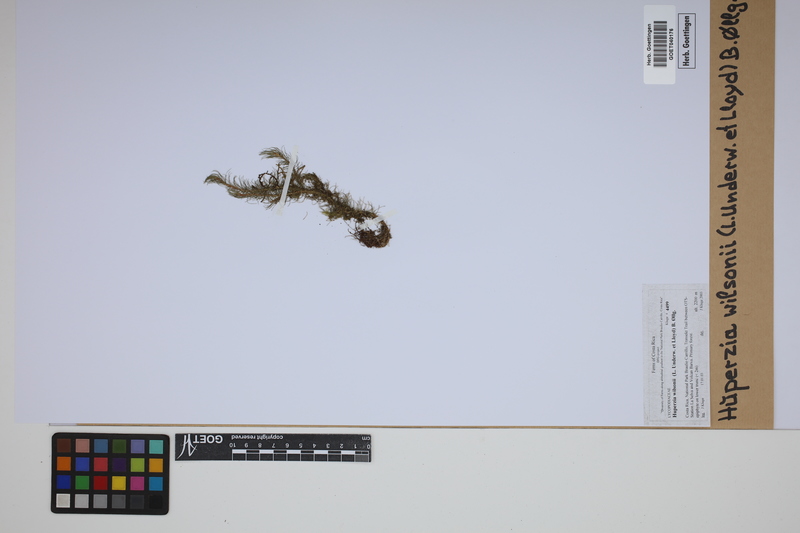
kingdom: Plantae
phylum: Tracheophyta
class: Lycopodiopsida
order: Lycopodiales
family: Lycopodiaceae
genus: Phlegmariurus
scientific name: Phlegmariurus wilsonii
